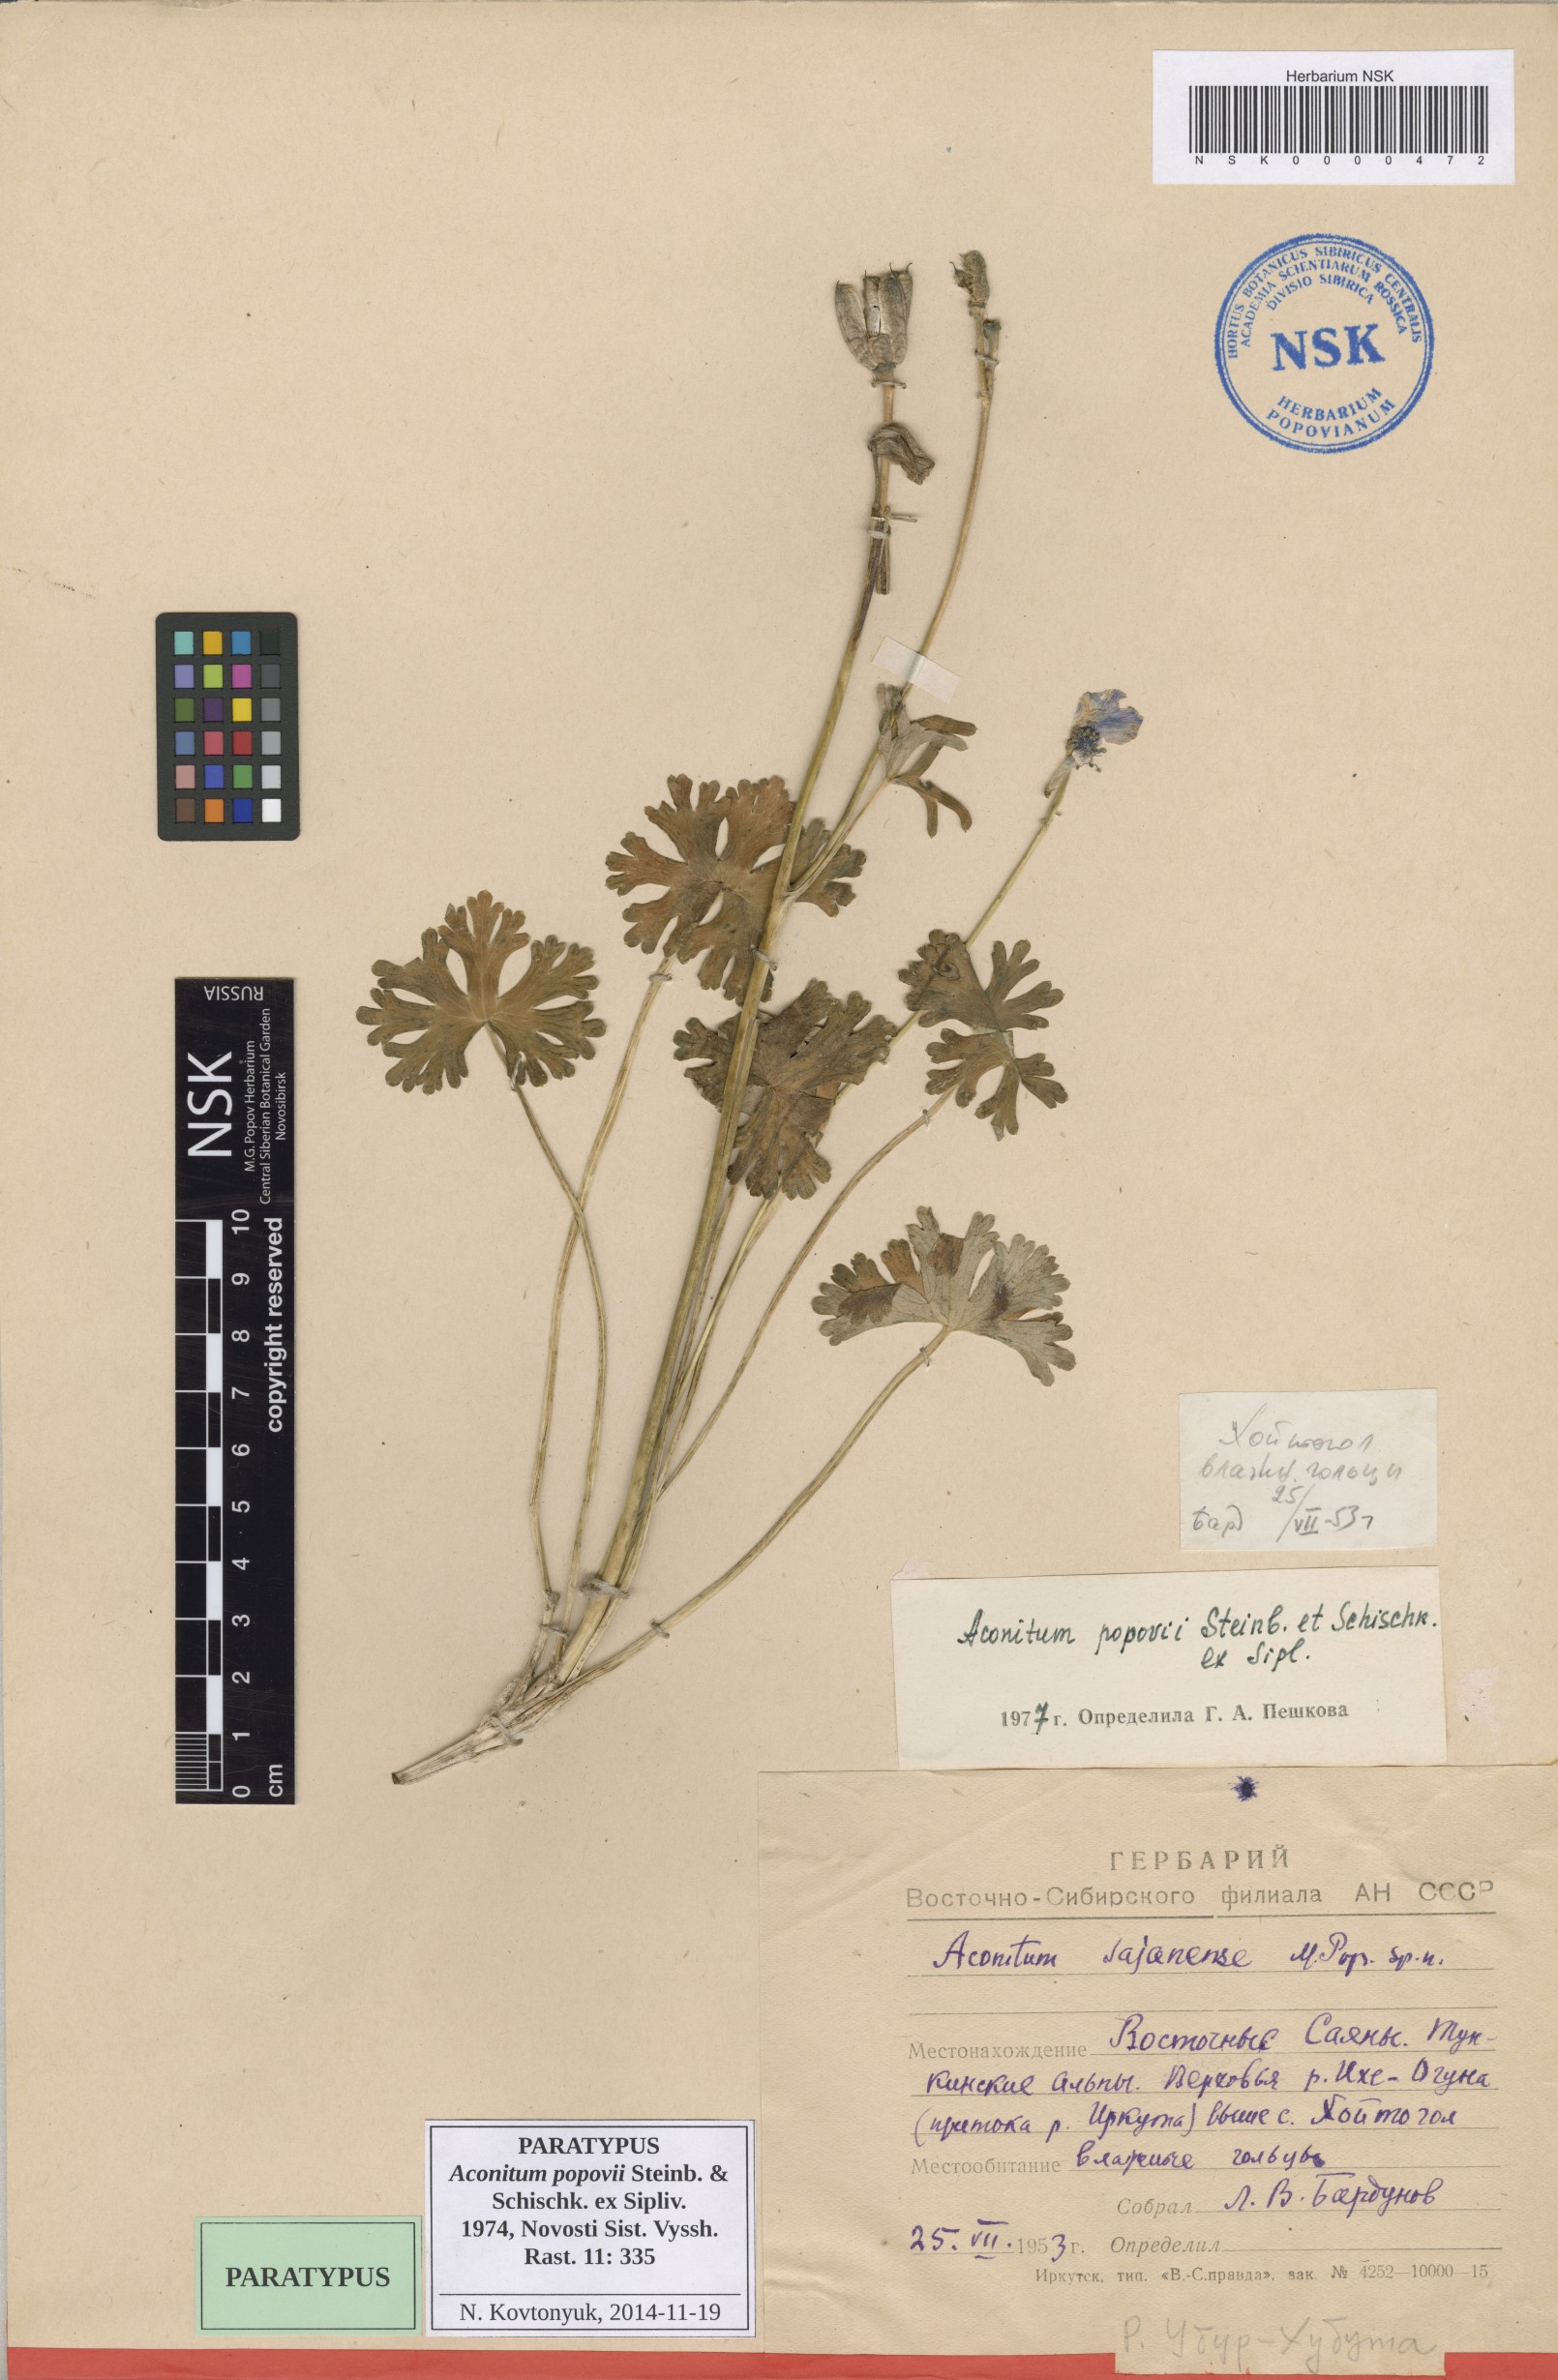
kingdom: Plantae
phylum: Tracheophyta
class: Magnoliopsida
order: Ranunculales
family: Ranunculaceae
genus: Aconitum
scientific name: Aconitum tanguticum
